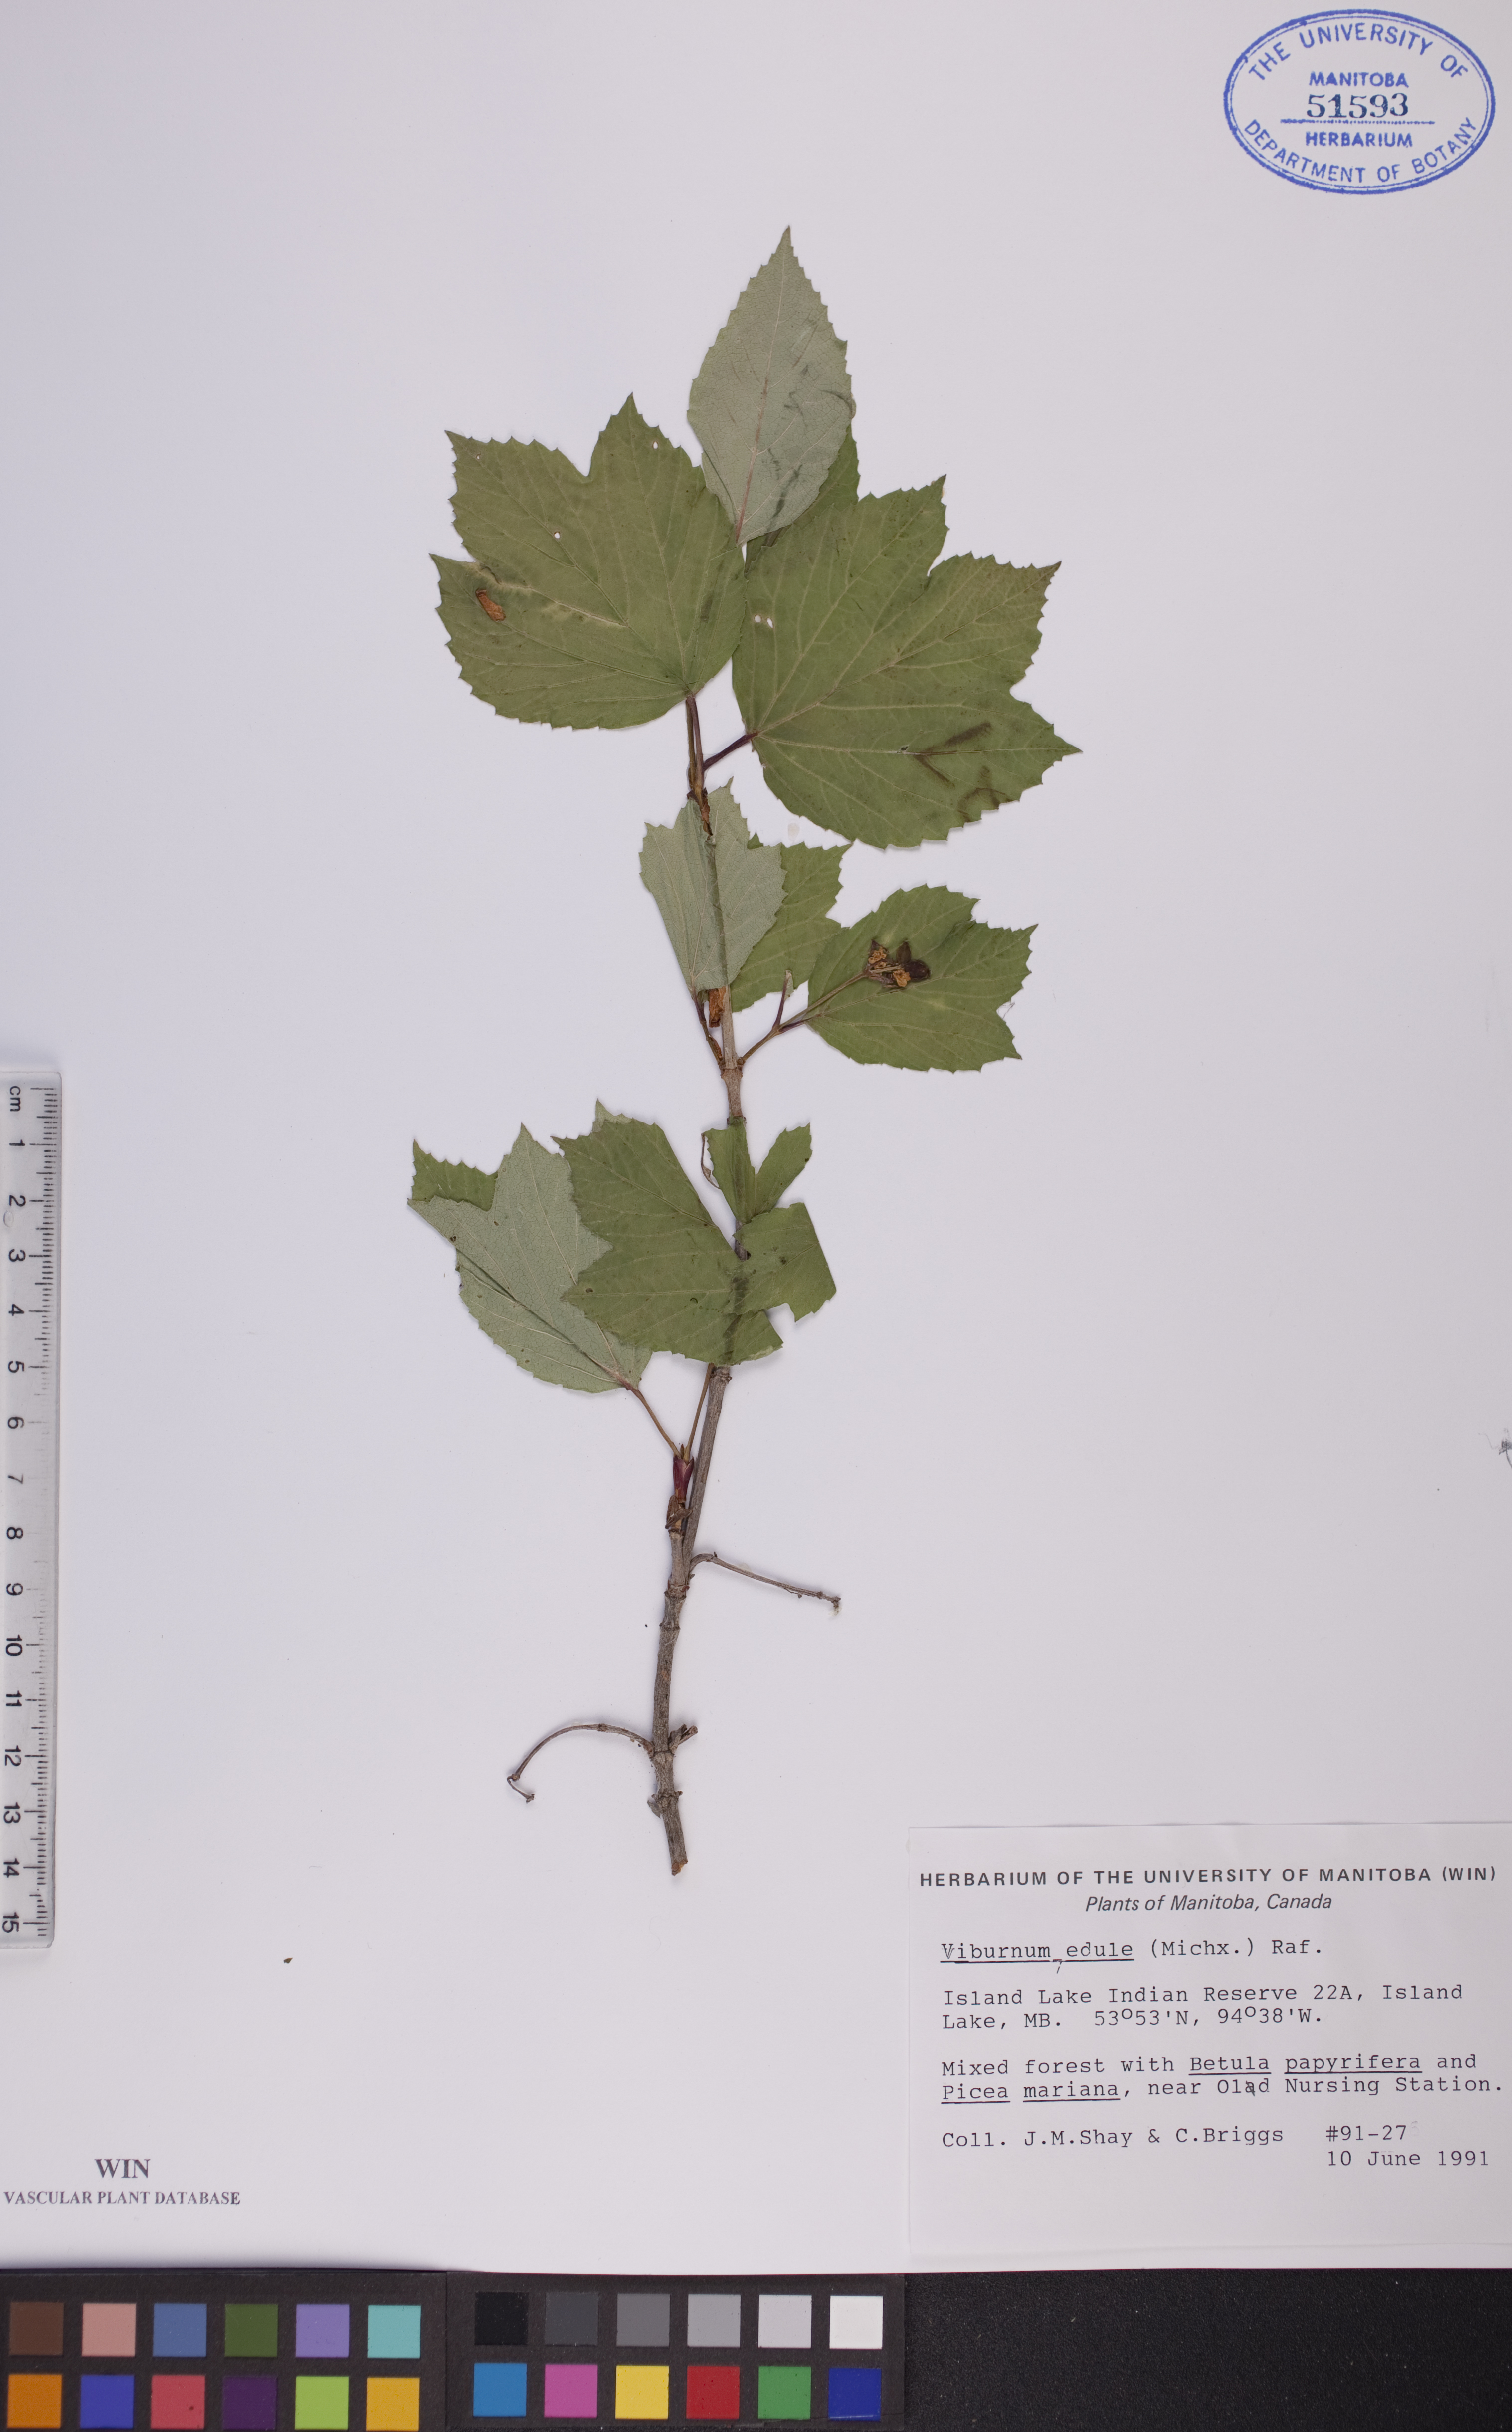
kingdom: Plantae
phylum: Tracheophyta
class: Magnoliopsida
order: Dipsacales
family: Viburnaceae
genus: Viburnum
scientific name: Viburnum edule
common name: Mooseberry
